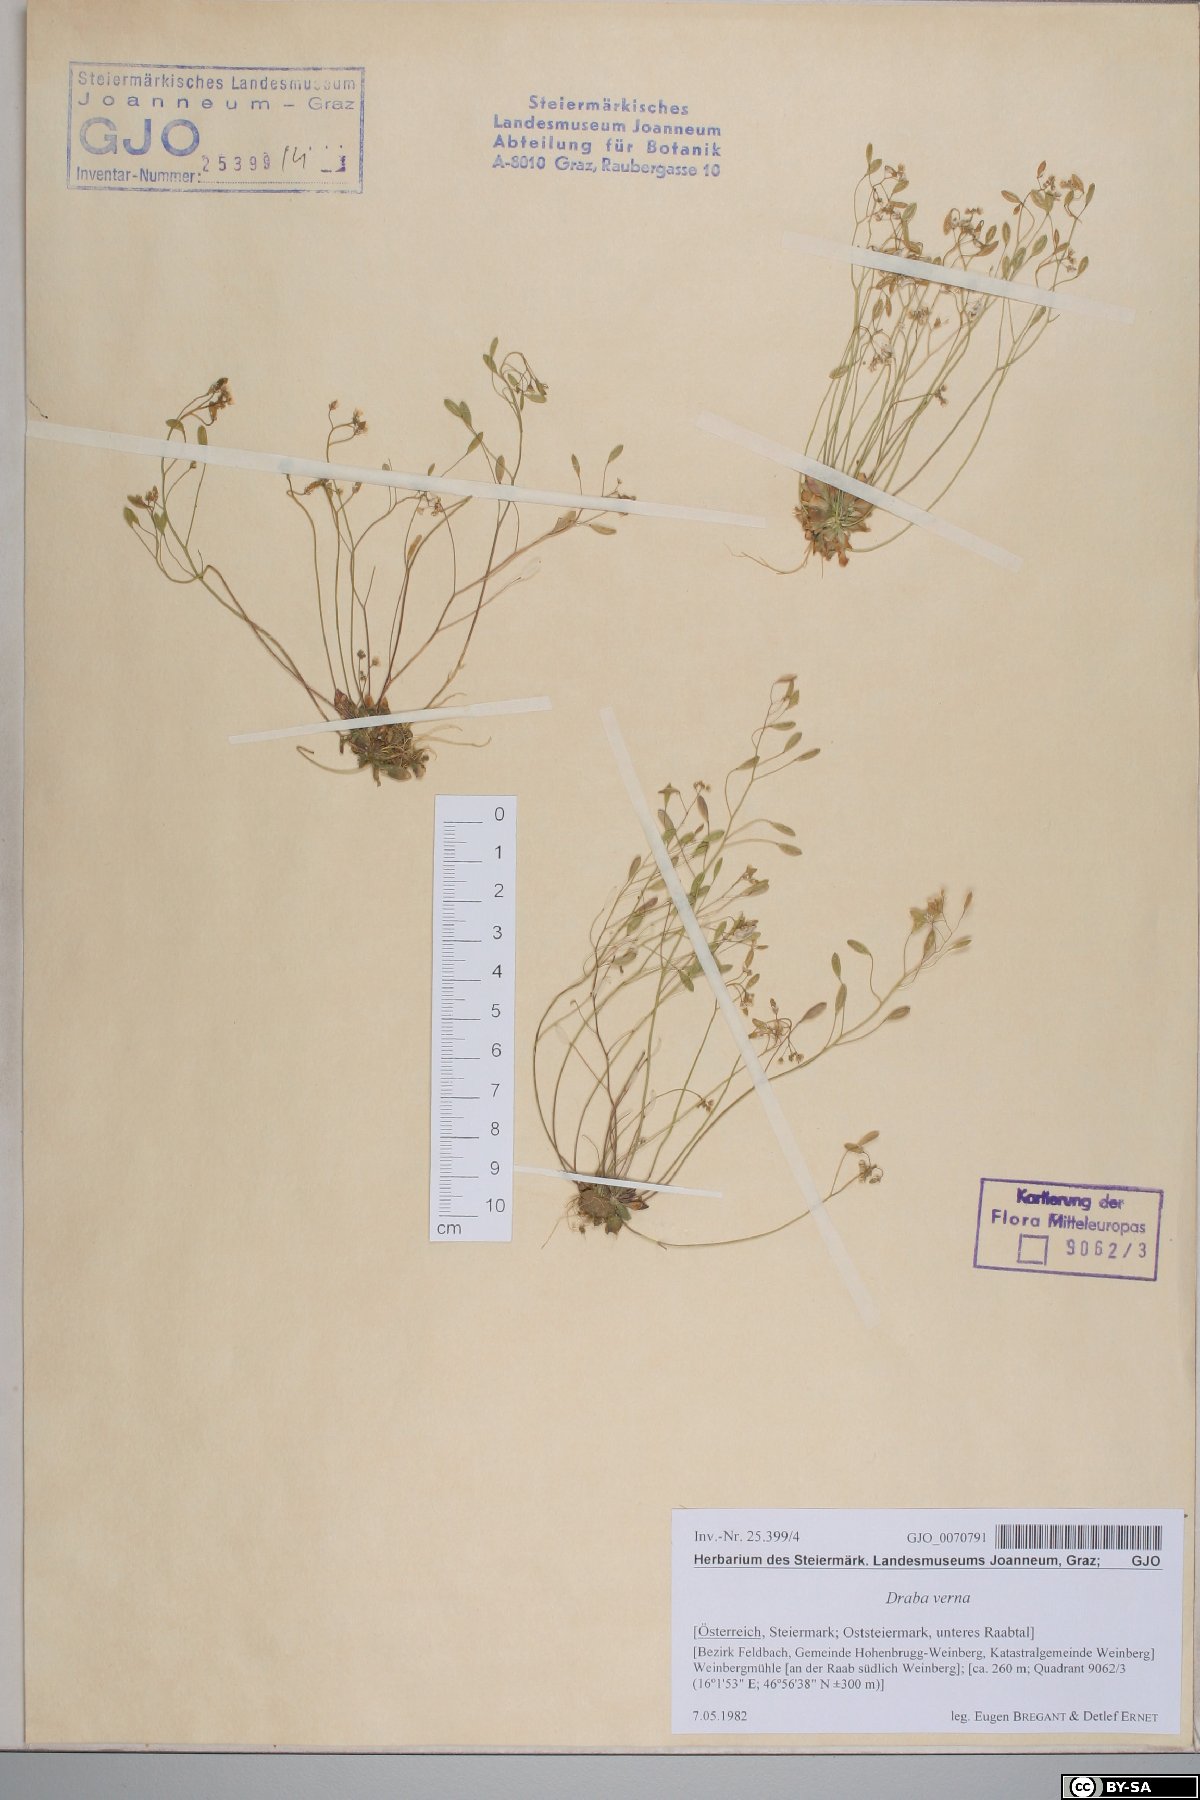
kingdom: Plantae
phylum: Tracheophyta
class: Magnoliopsida
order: Brassicales
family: Brassicaceae
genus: Draba
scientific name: Draba verna
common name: Spring draba
